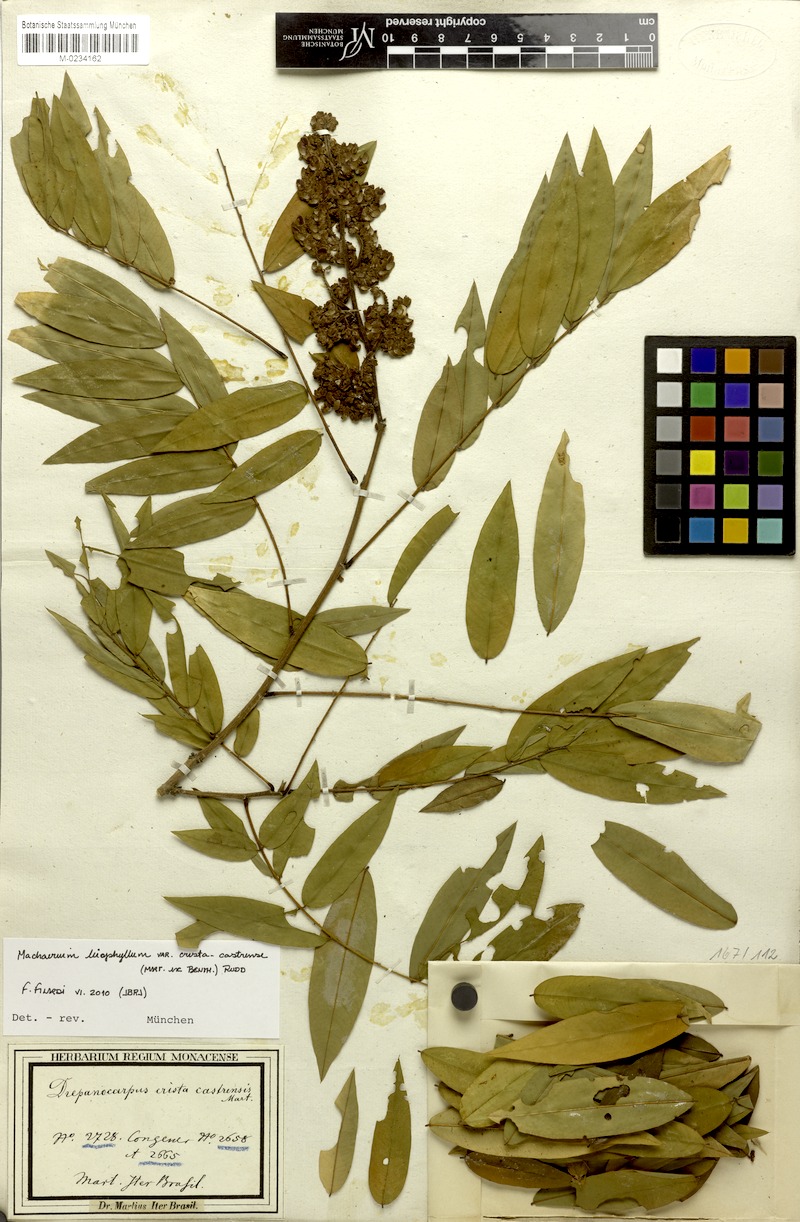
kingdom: Plantae
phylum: Tracheophyta
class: Magnoliopsida
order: Fabales
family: Fabaceae
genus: Machaerium
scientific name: Machaerium leiophyllum
